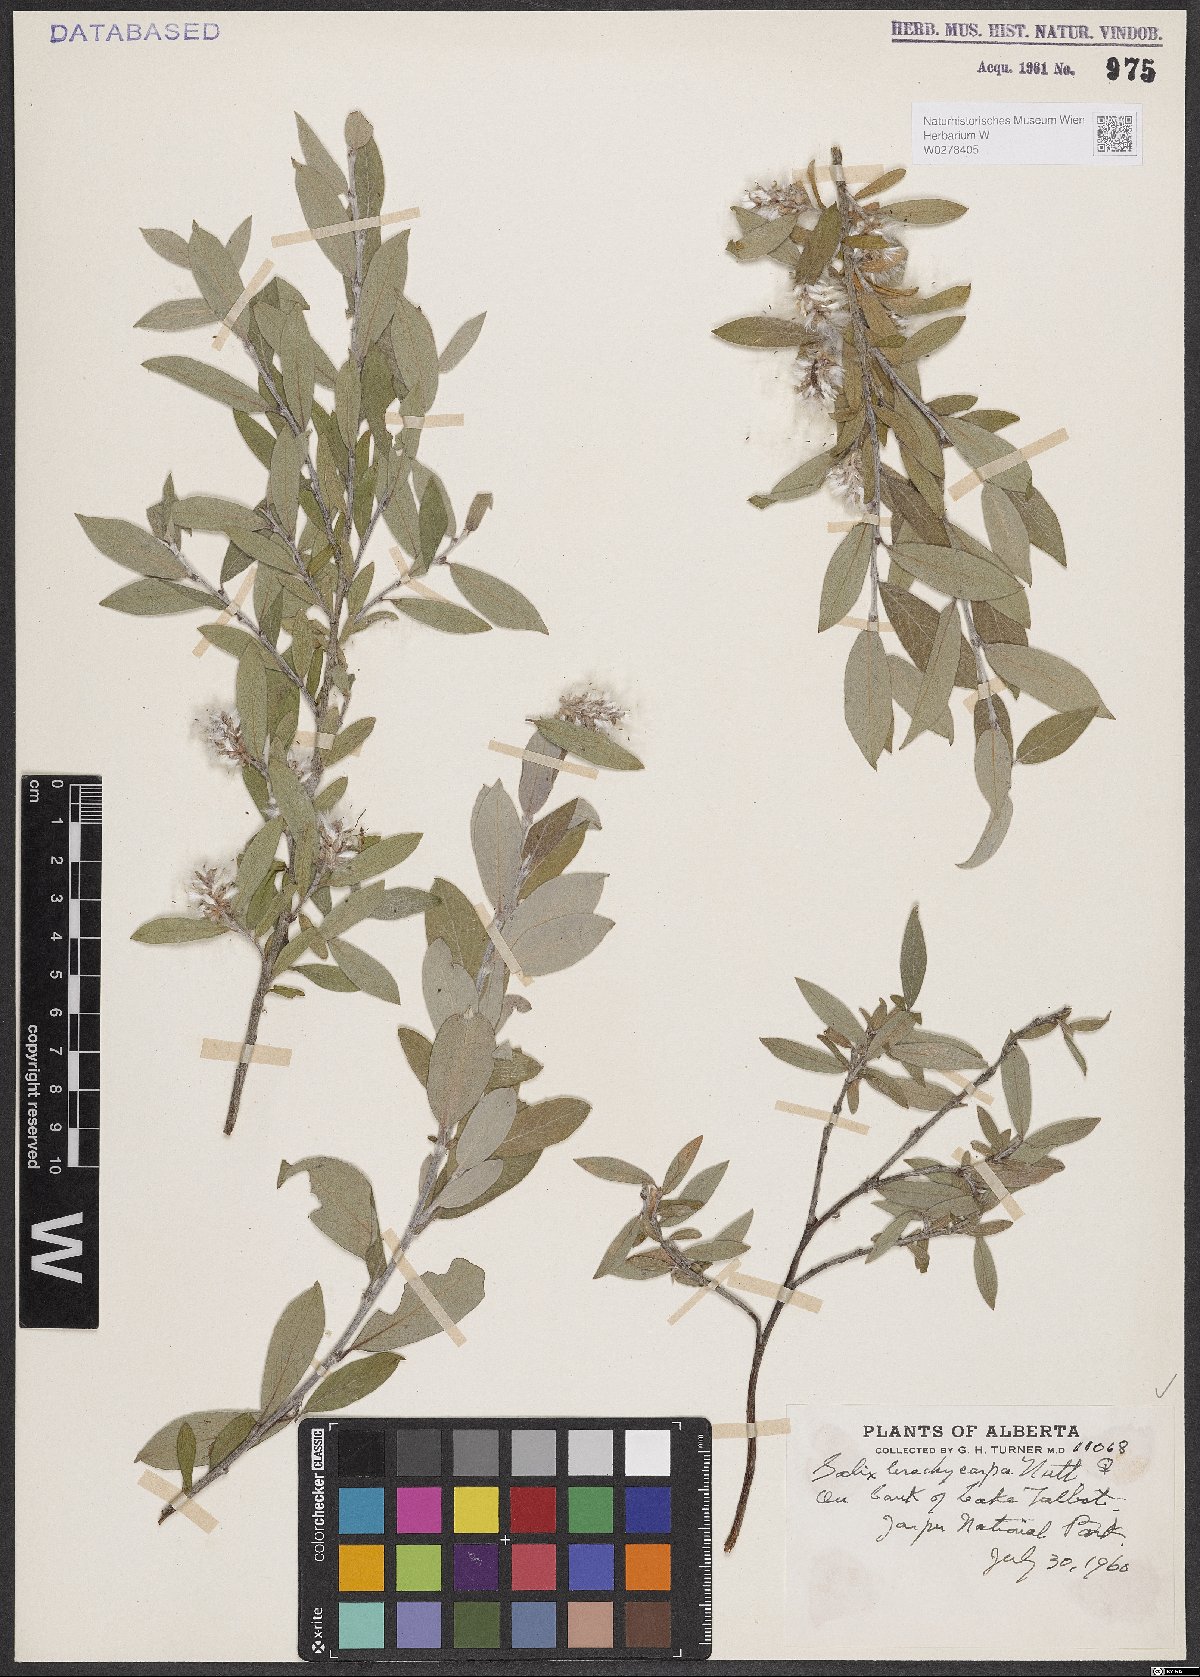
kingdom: Plantae
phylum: Tracheophyta
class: Magnoliopsida
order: Malpighiales
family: Salicaceae
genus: Salix
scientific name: Salix brachycarpa
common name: Barren-ground willow
